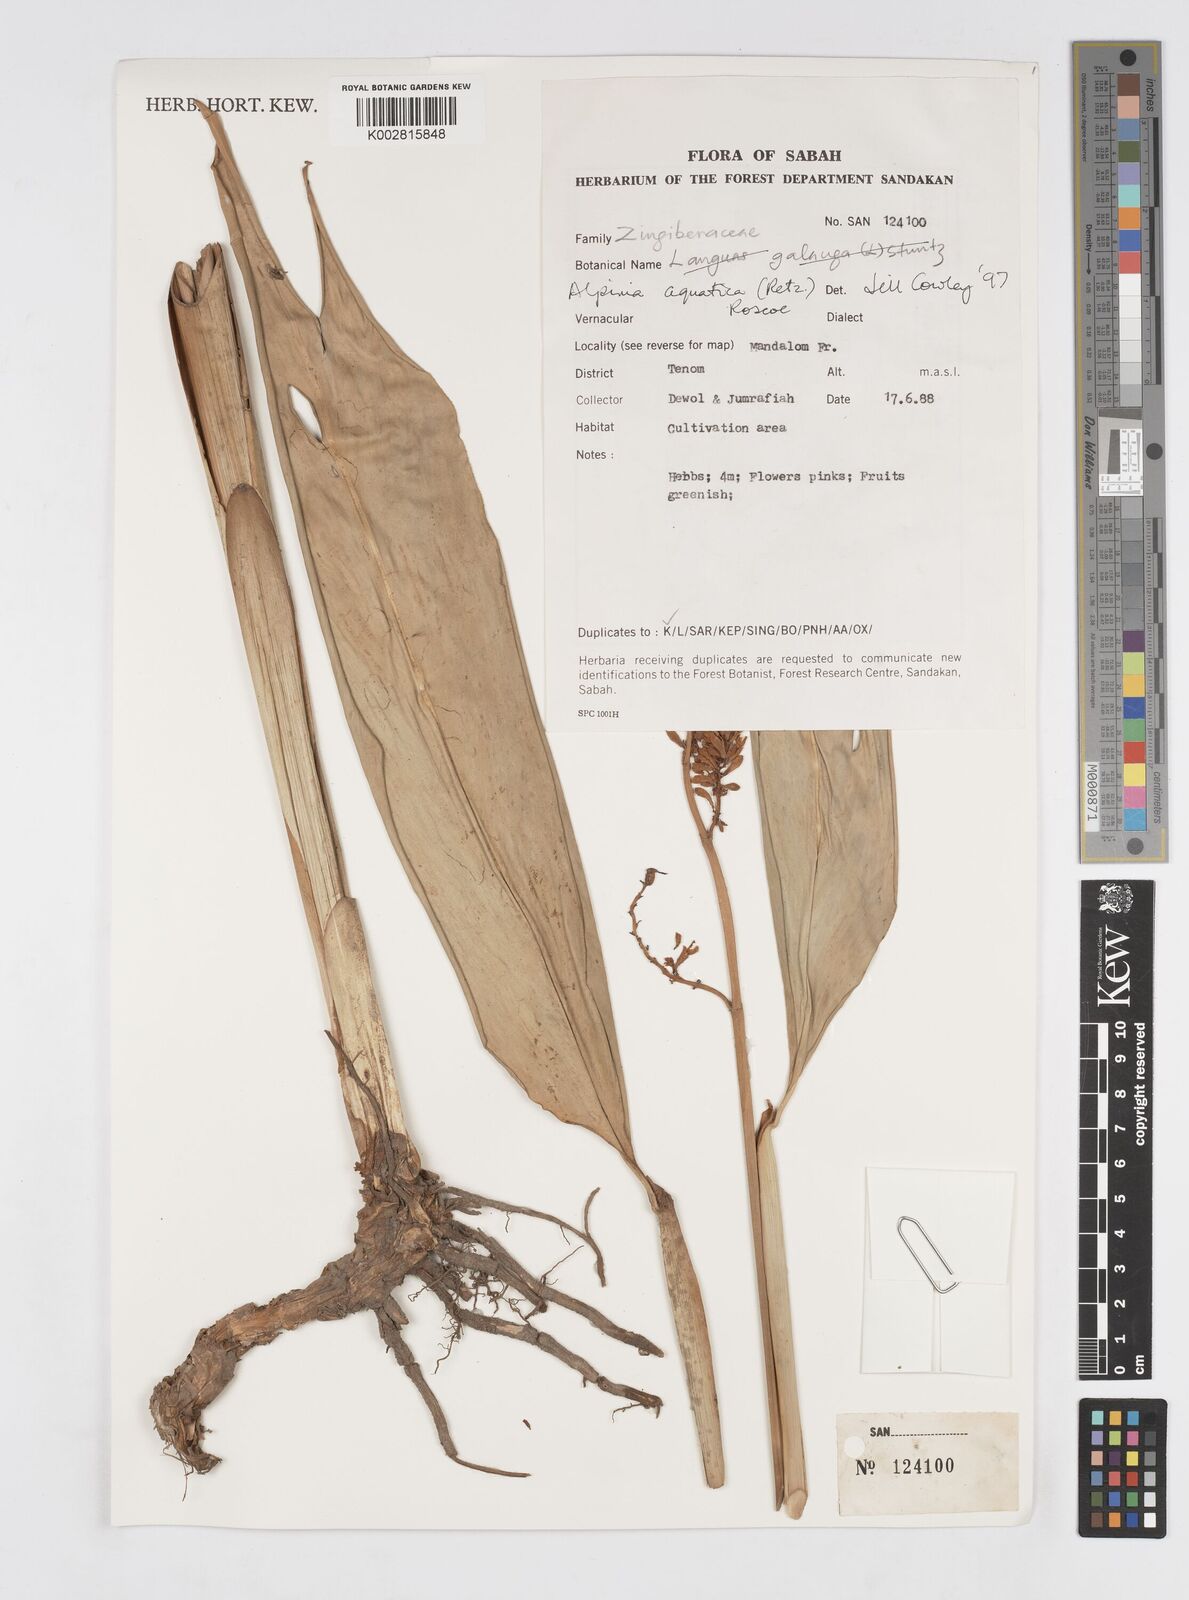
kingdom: Plantae
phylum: Tracheophyta
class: Liliopsida
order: Zingiberales
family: Zingiberaceae
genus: Alpinia
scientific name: Alpinia aquatica
